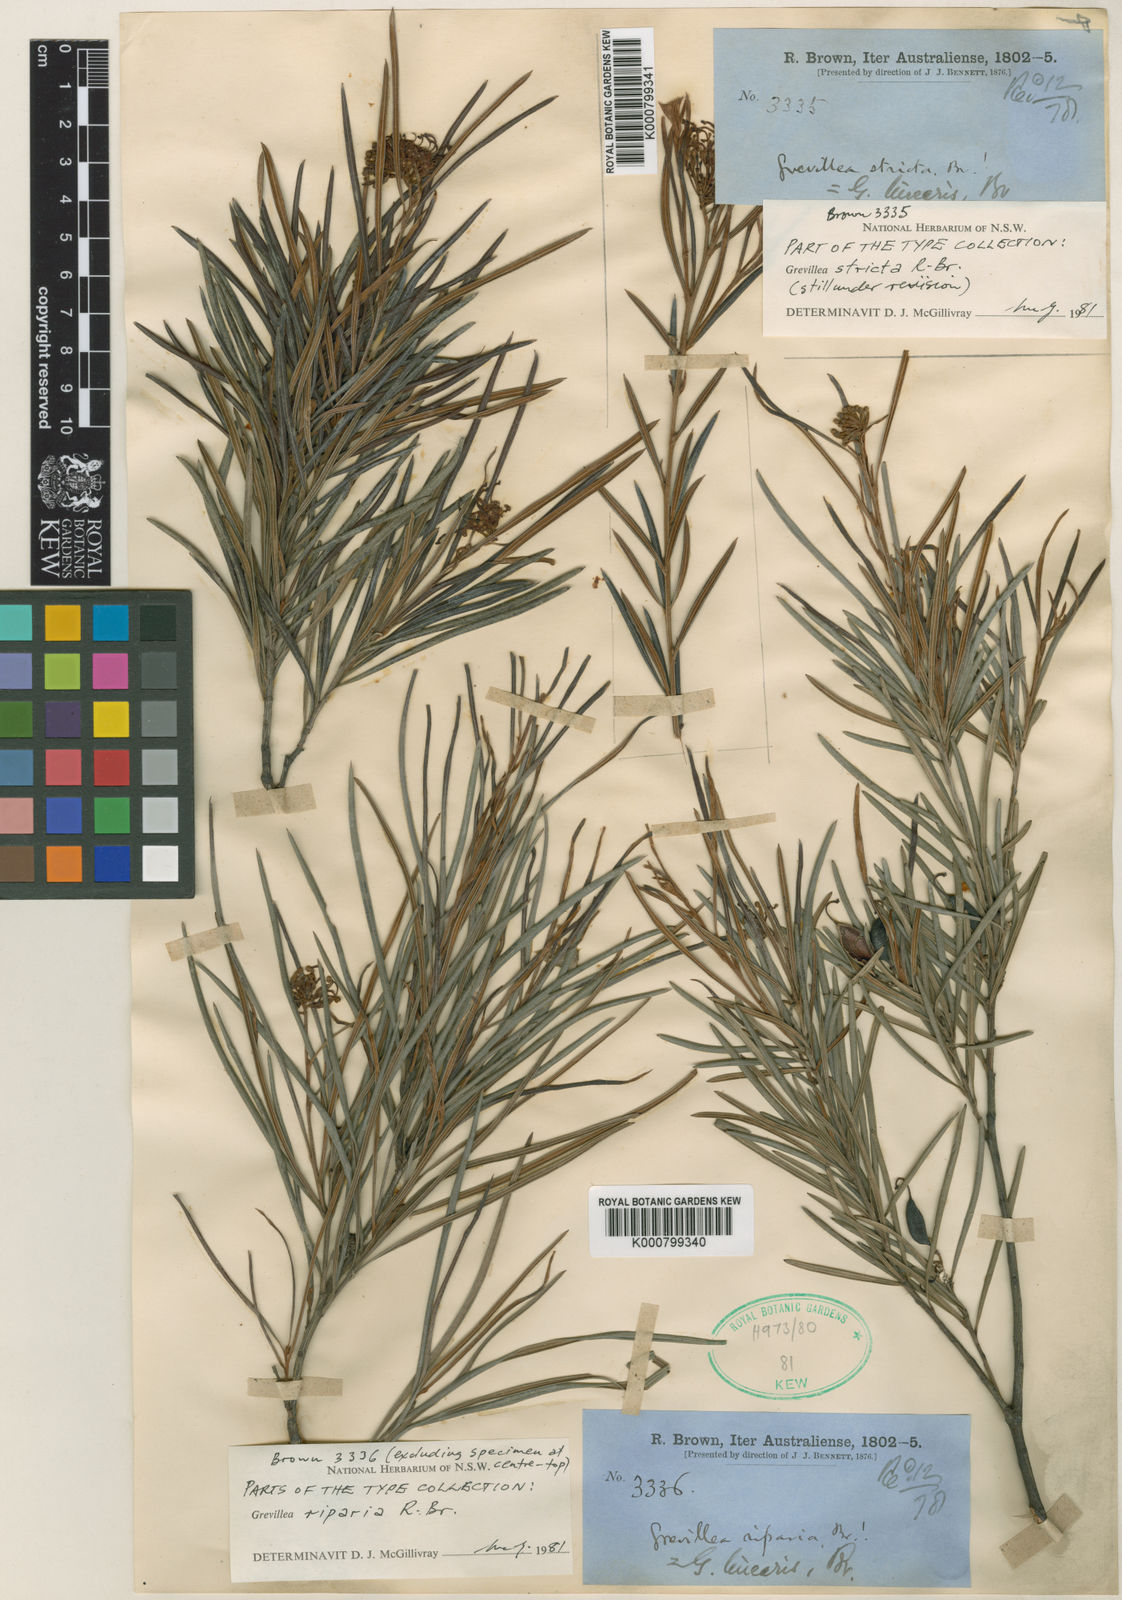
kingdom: Plantae
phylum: Tracheophyta
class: Magnoliopsida
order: Proteales
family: Proteaceae
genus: Grevillea
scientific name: Grevillea sericea
